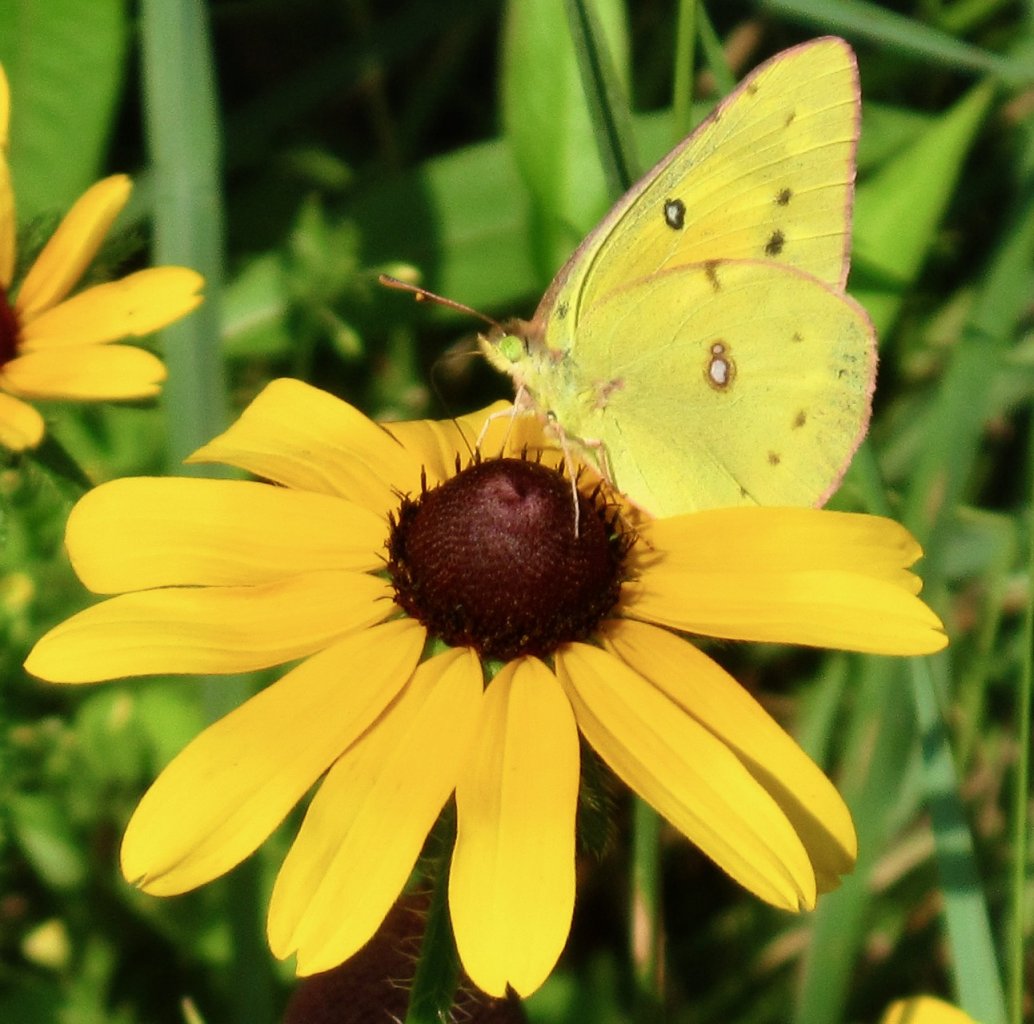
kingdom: Animalia
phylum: Arthropoda
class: Insecta
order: Lepidoptera
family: Pieridae
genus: Colias
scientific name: Colias eurytheme
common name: Orange Sulphur
